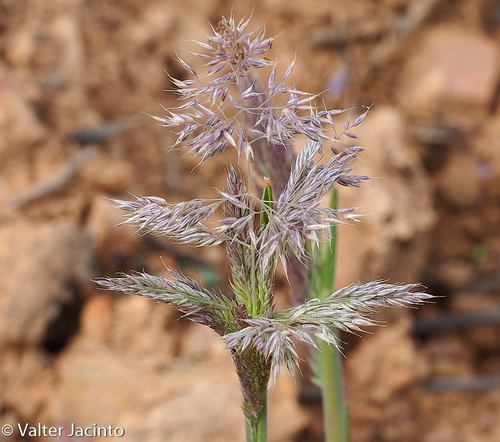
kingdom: Plantae
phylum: Tracheophyta
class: Liliopsida
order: Poales
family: Poaceae
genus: Holcus
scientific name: Holcus lanatus
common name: Yorkshire-fog
